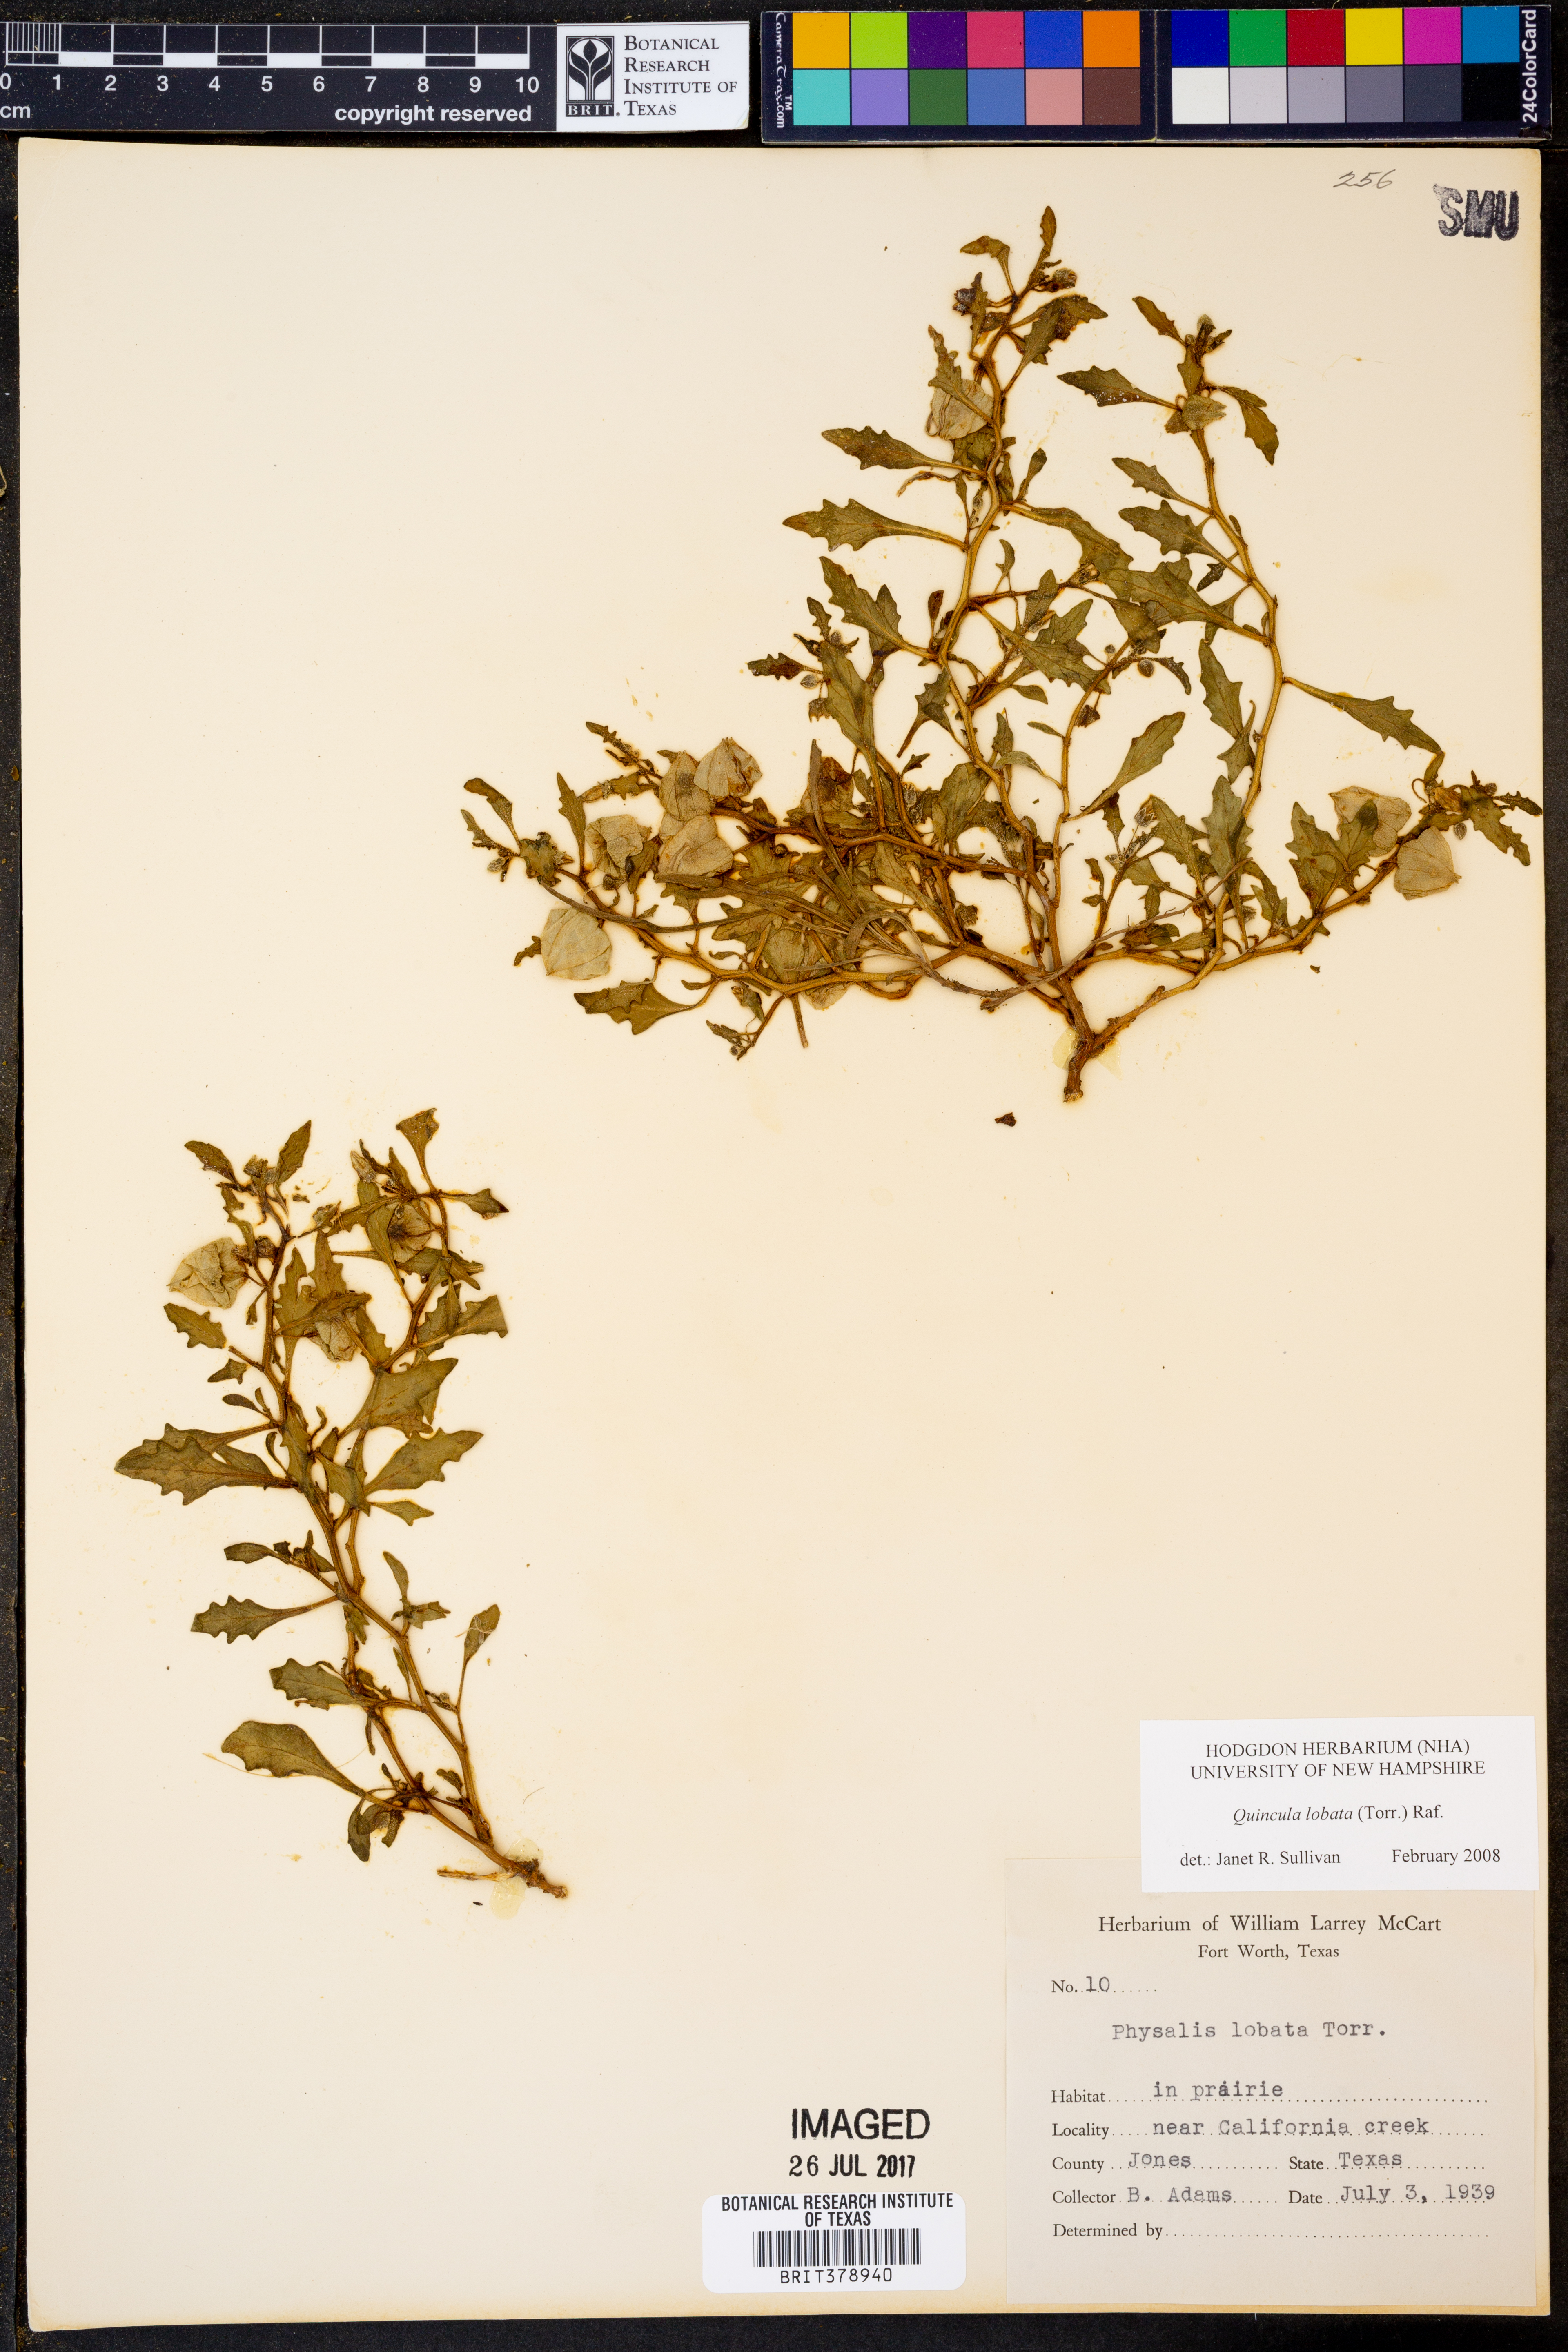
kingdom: Plantae
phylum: Tracheophyta
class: Magnoliopsida
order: Solanales
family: Solanaceae
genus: Quincula
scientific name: Quincula lobata
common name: Purple-ground-cherry
